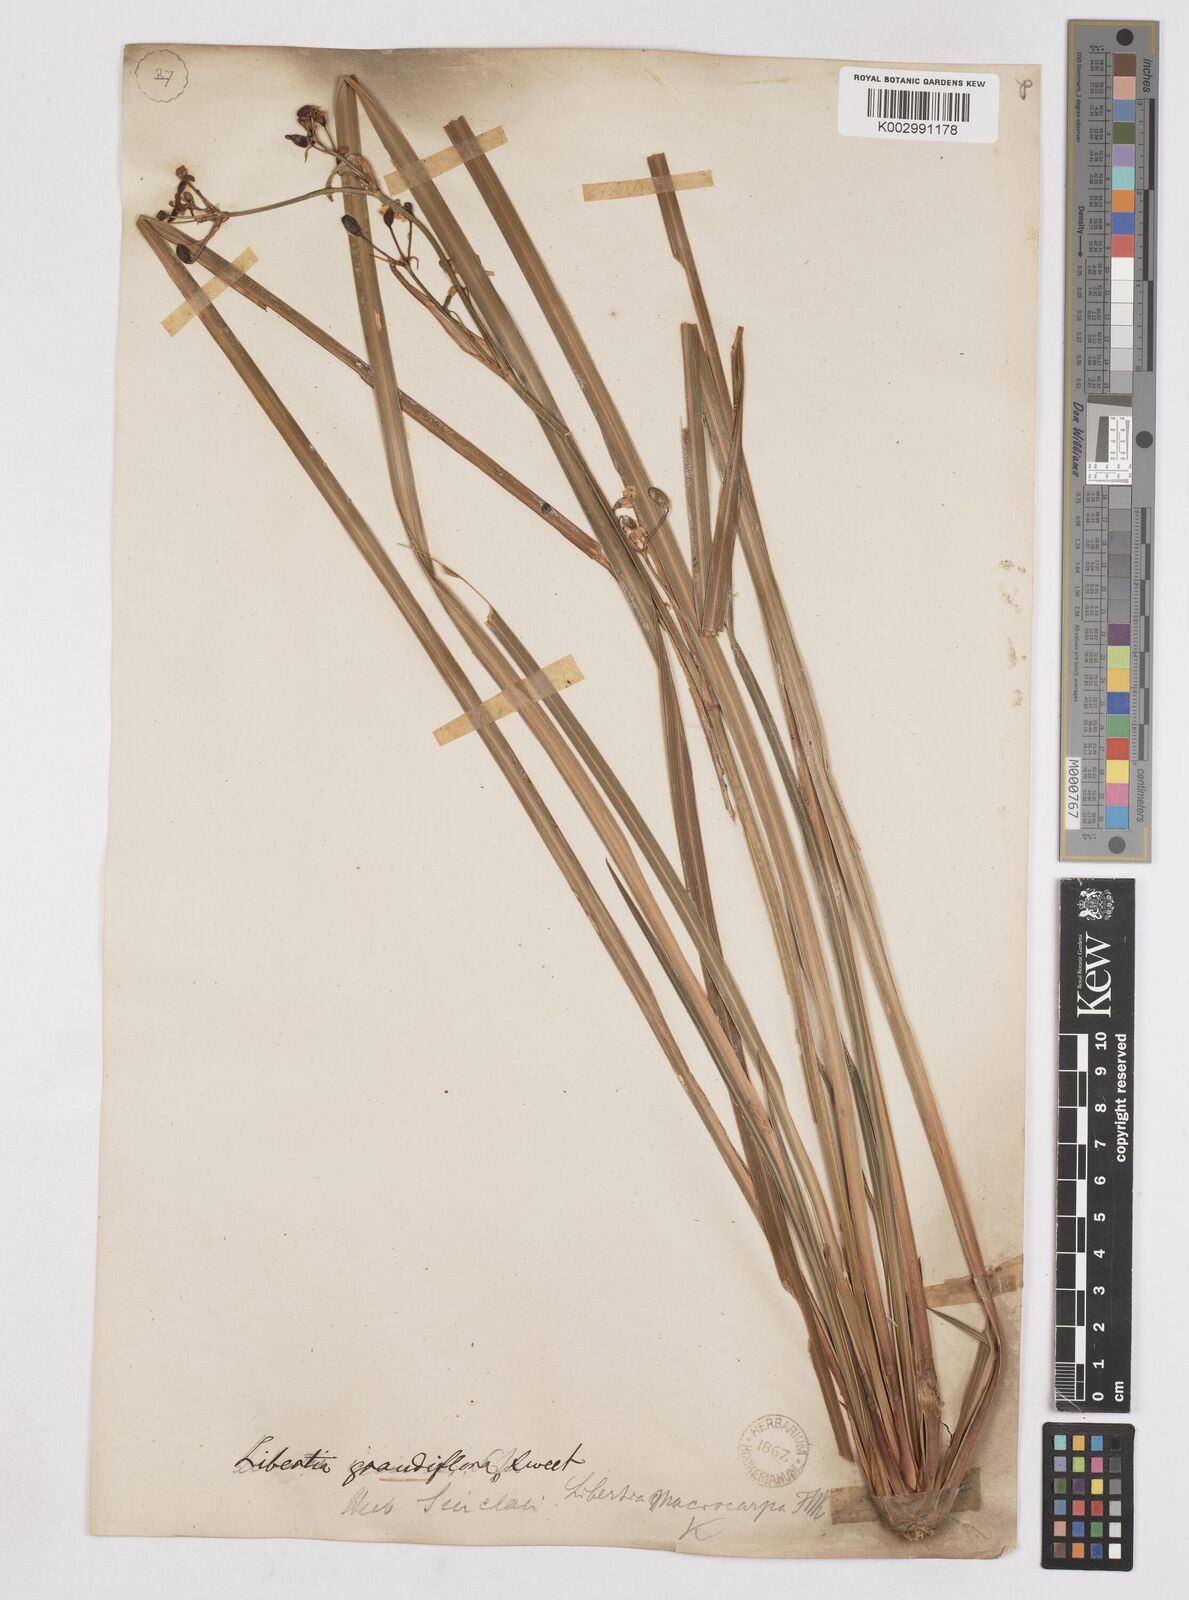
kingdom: Plantae
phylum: Tracheophyta
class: Liliopsida
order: Asparagales
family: Iridaceae
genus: Libertia
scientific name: Libertia ixioides
